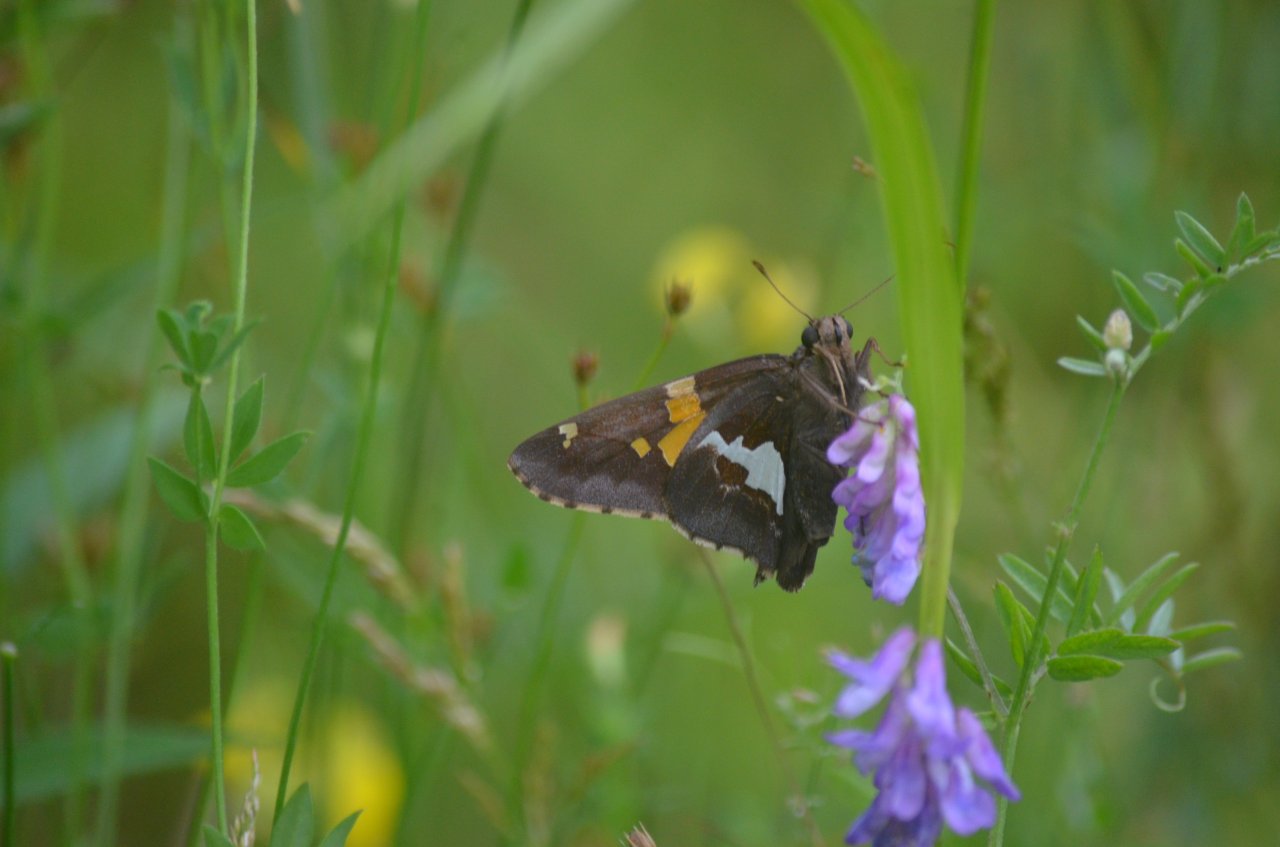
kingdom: Animalia
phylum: Arthropoda
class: Insecta
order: Lepidoptera
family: Hesperiidae
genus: Epargyreus
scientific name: Epargyreus clarus
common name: Silver-spotted Skipper
